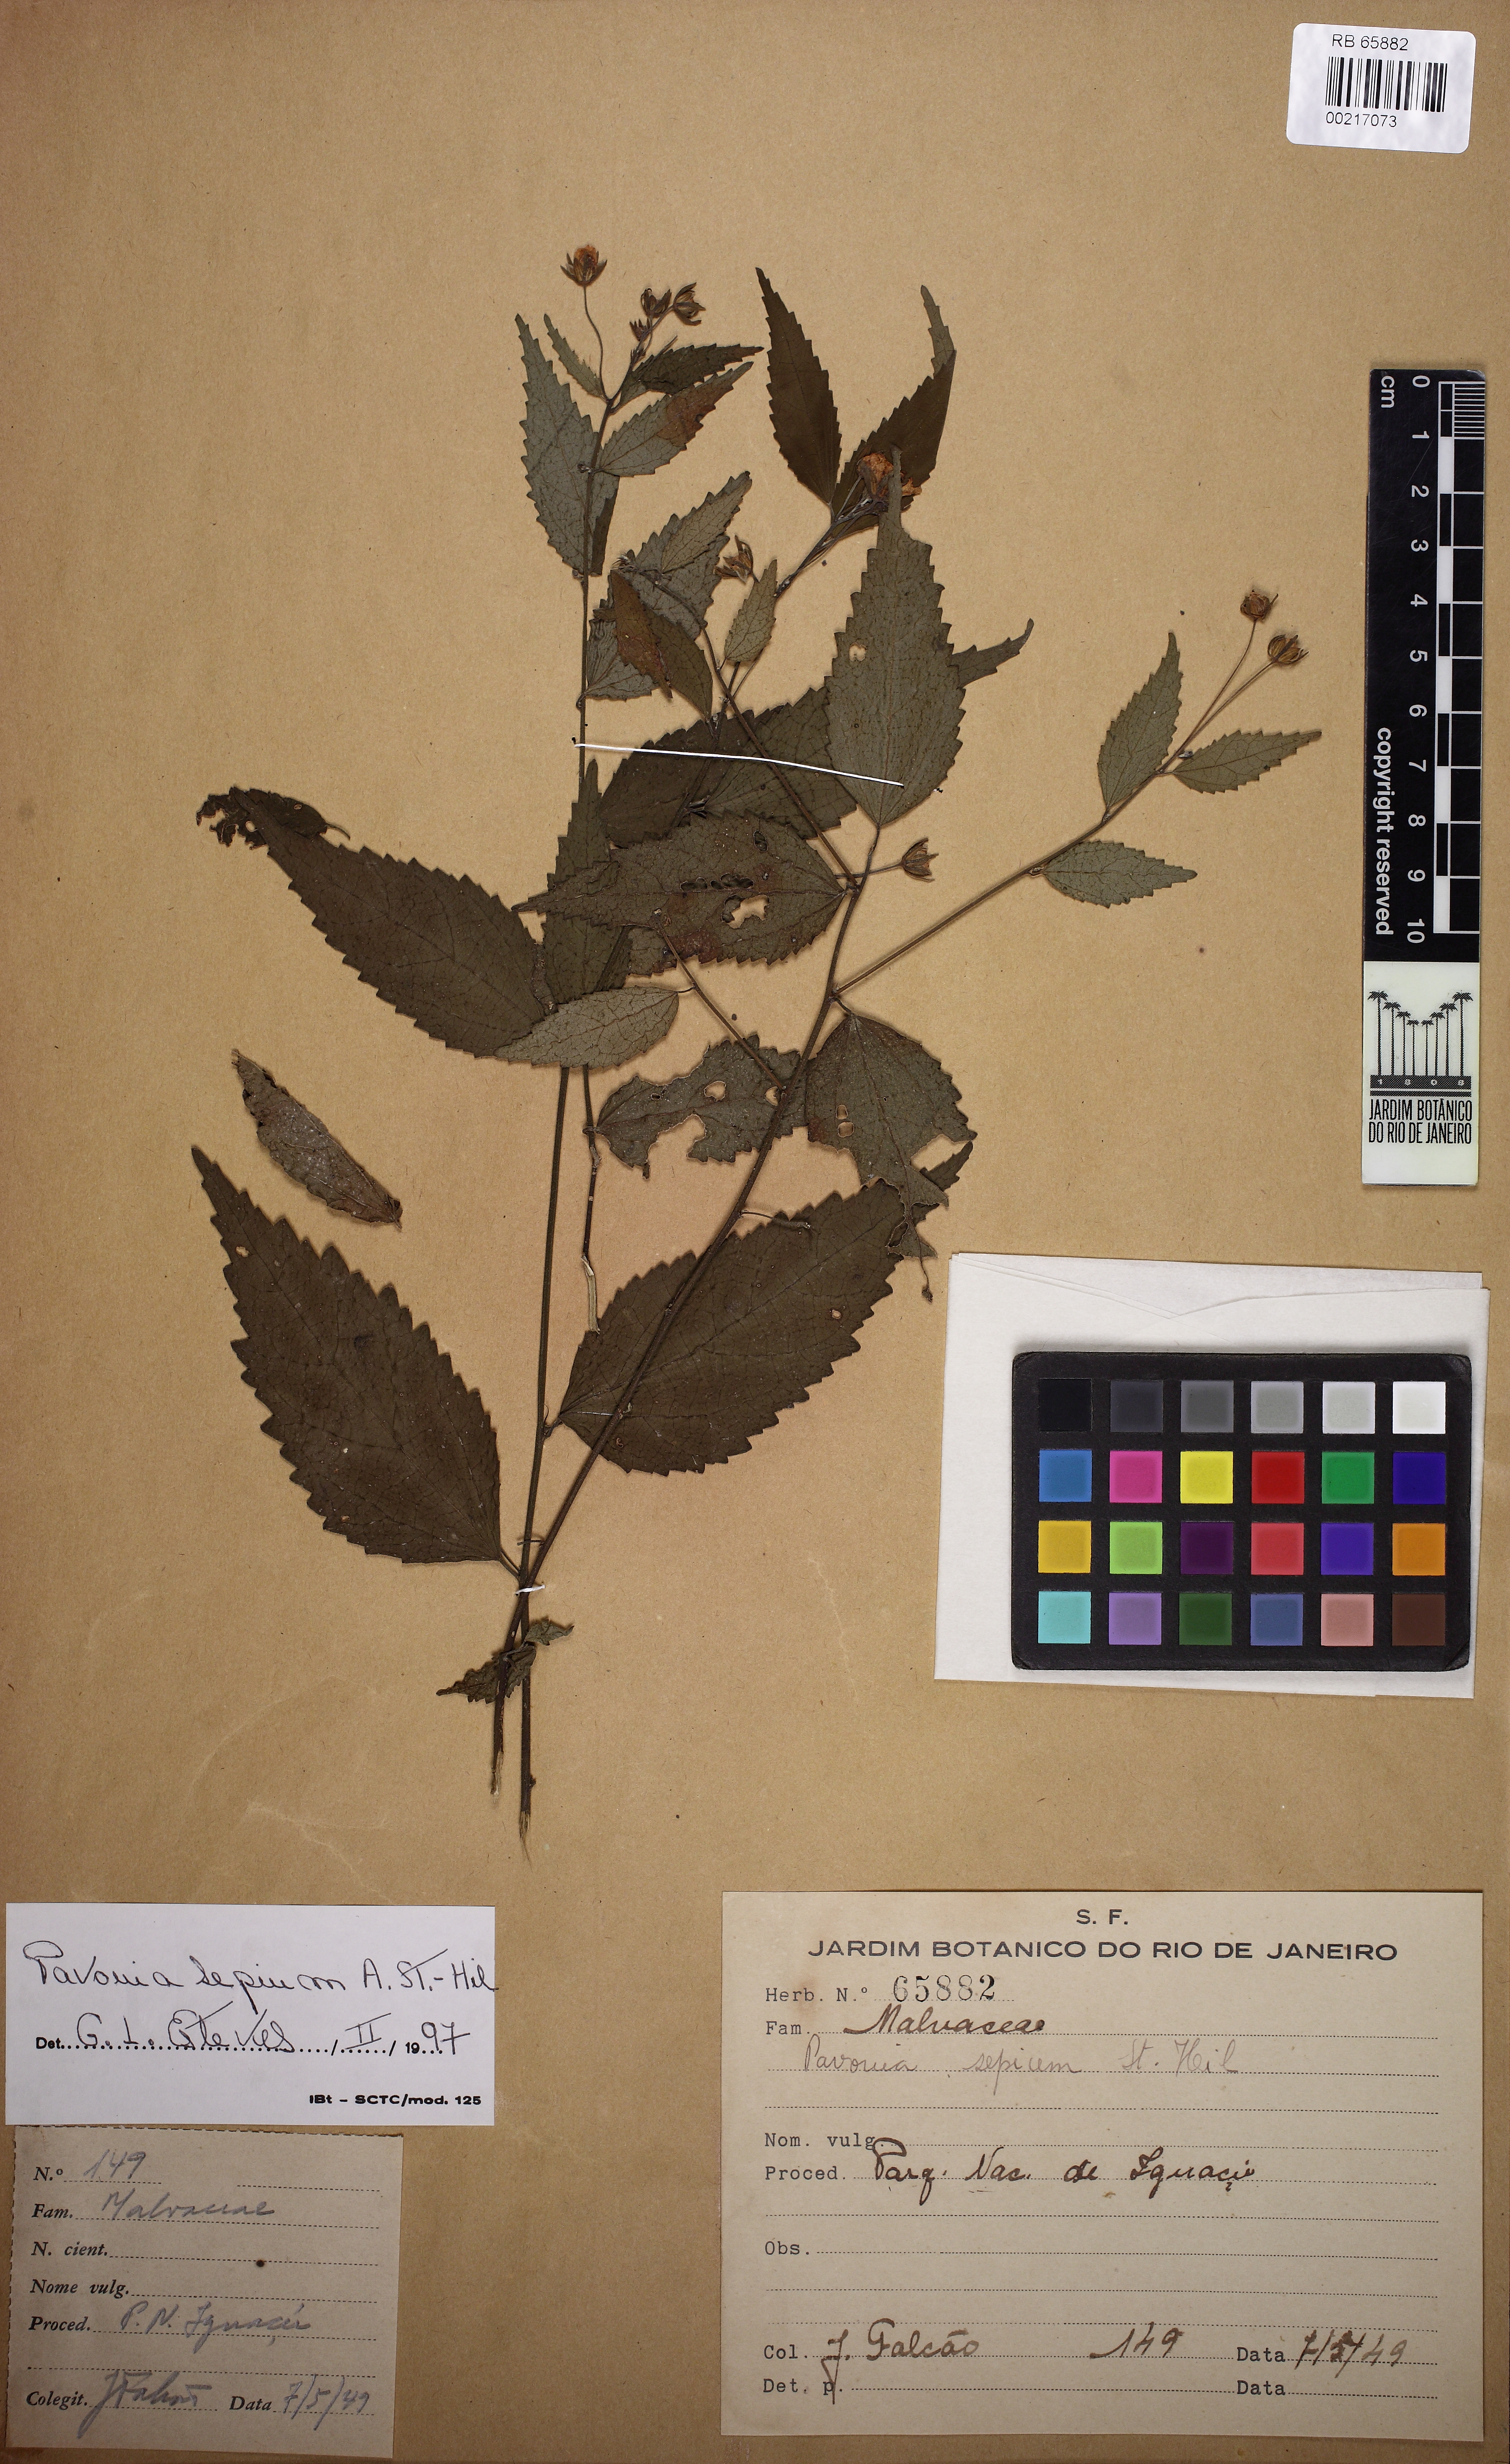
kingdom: Plantae
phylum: Tracheophyta
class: Magnoliopsida
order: Malvales
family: Malvaceae
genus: Pavonia
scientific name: Pavonia sepium
